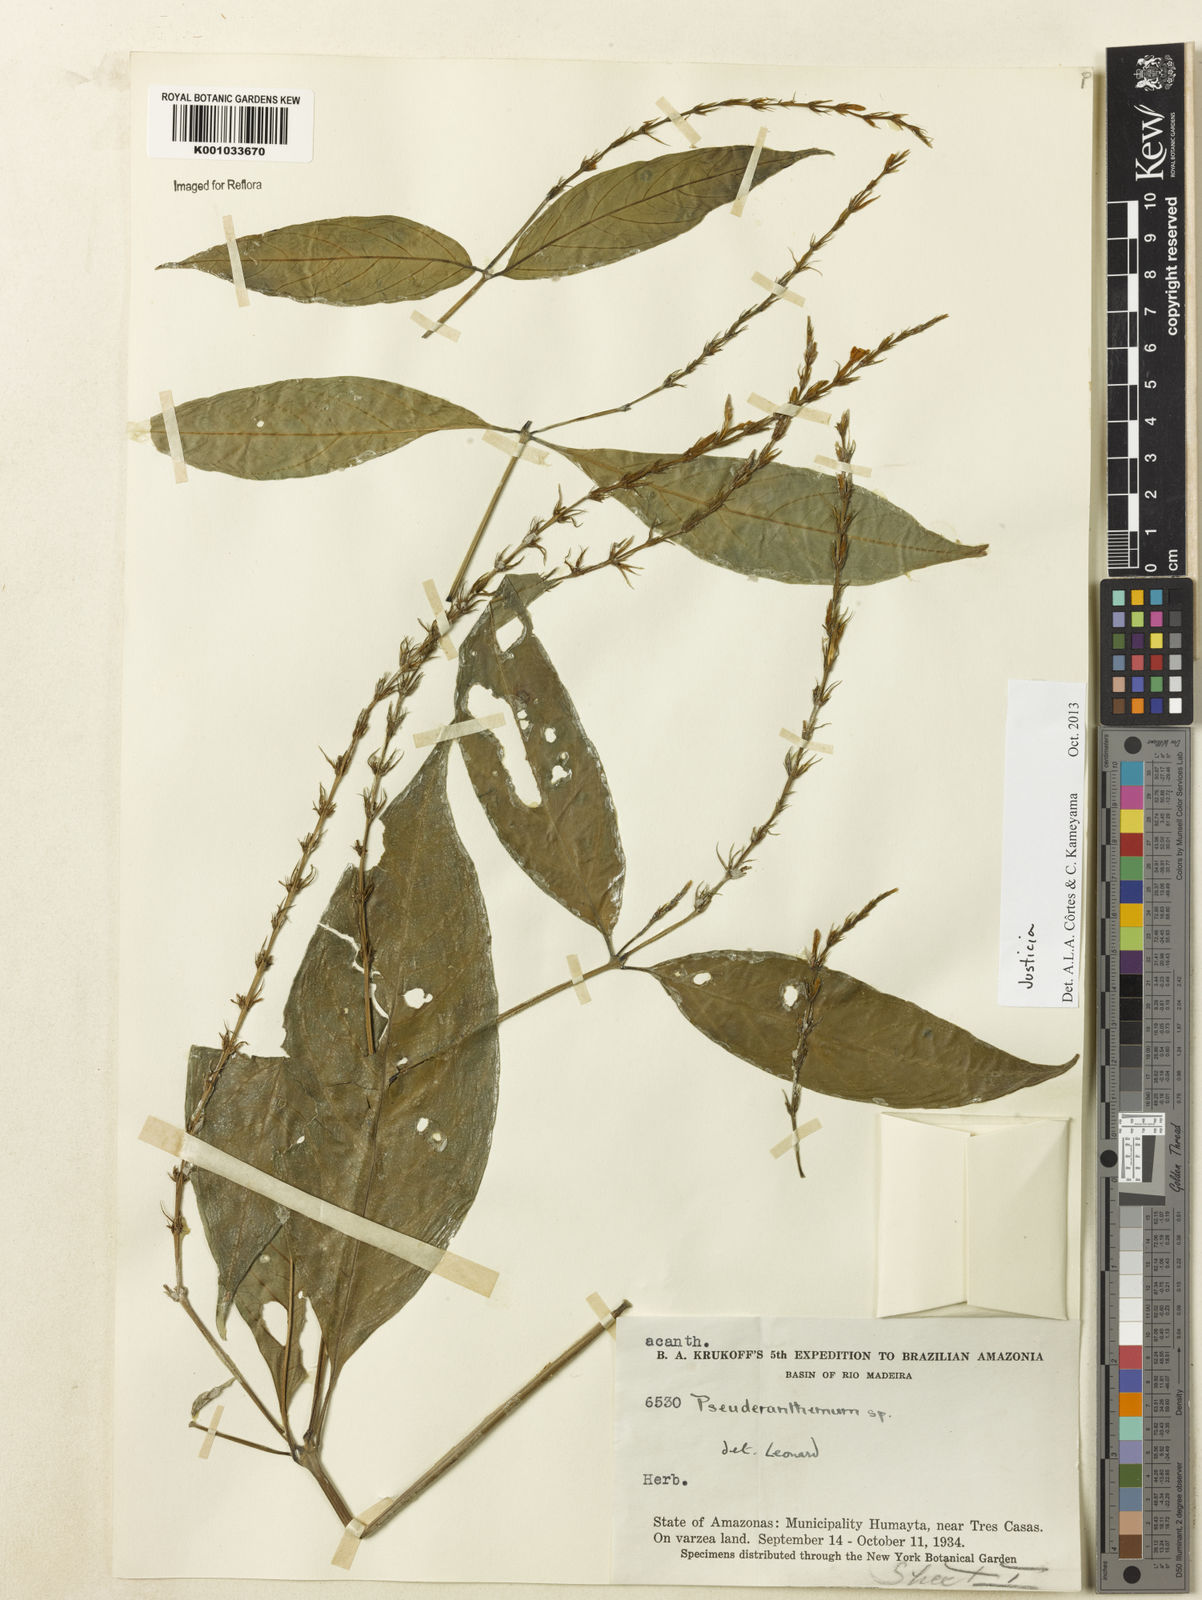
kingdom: Plantae
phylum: Tracheophyta
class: Magnoliopsida
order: Lamiales
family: Acanthaceae
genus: Justicia
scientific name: Justicia
